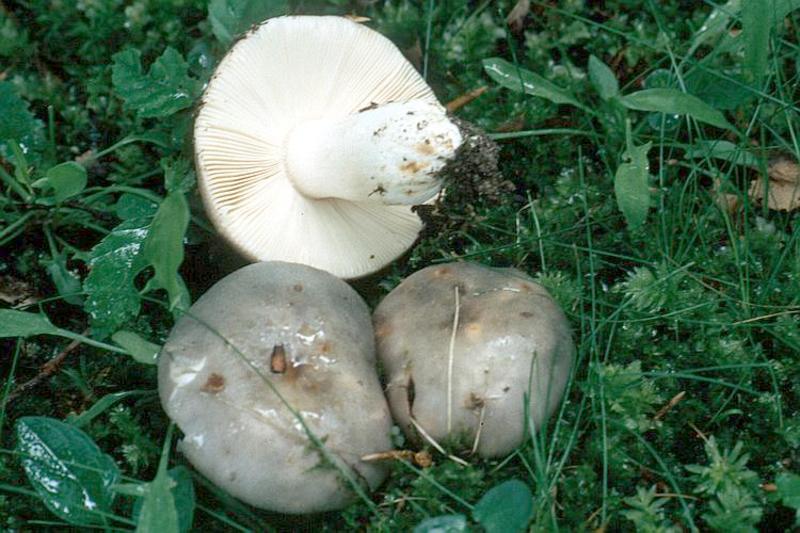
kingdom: Fungi
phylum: Basidiomycota
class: Agaricomycetes
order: Russulales
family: Russulaceae
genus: Russula
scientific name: Russula ionochlora
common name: Marbled brittlegill
